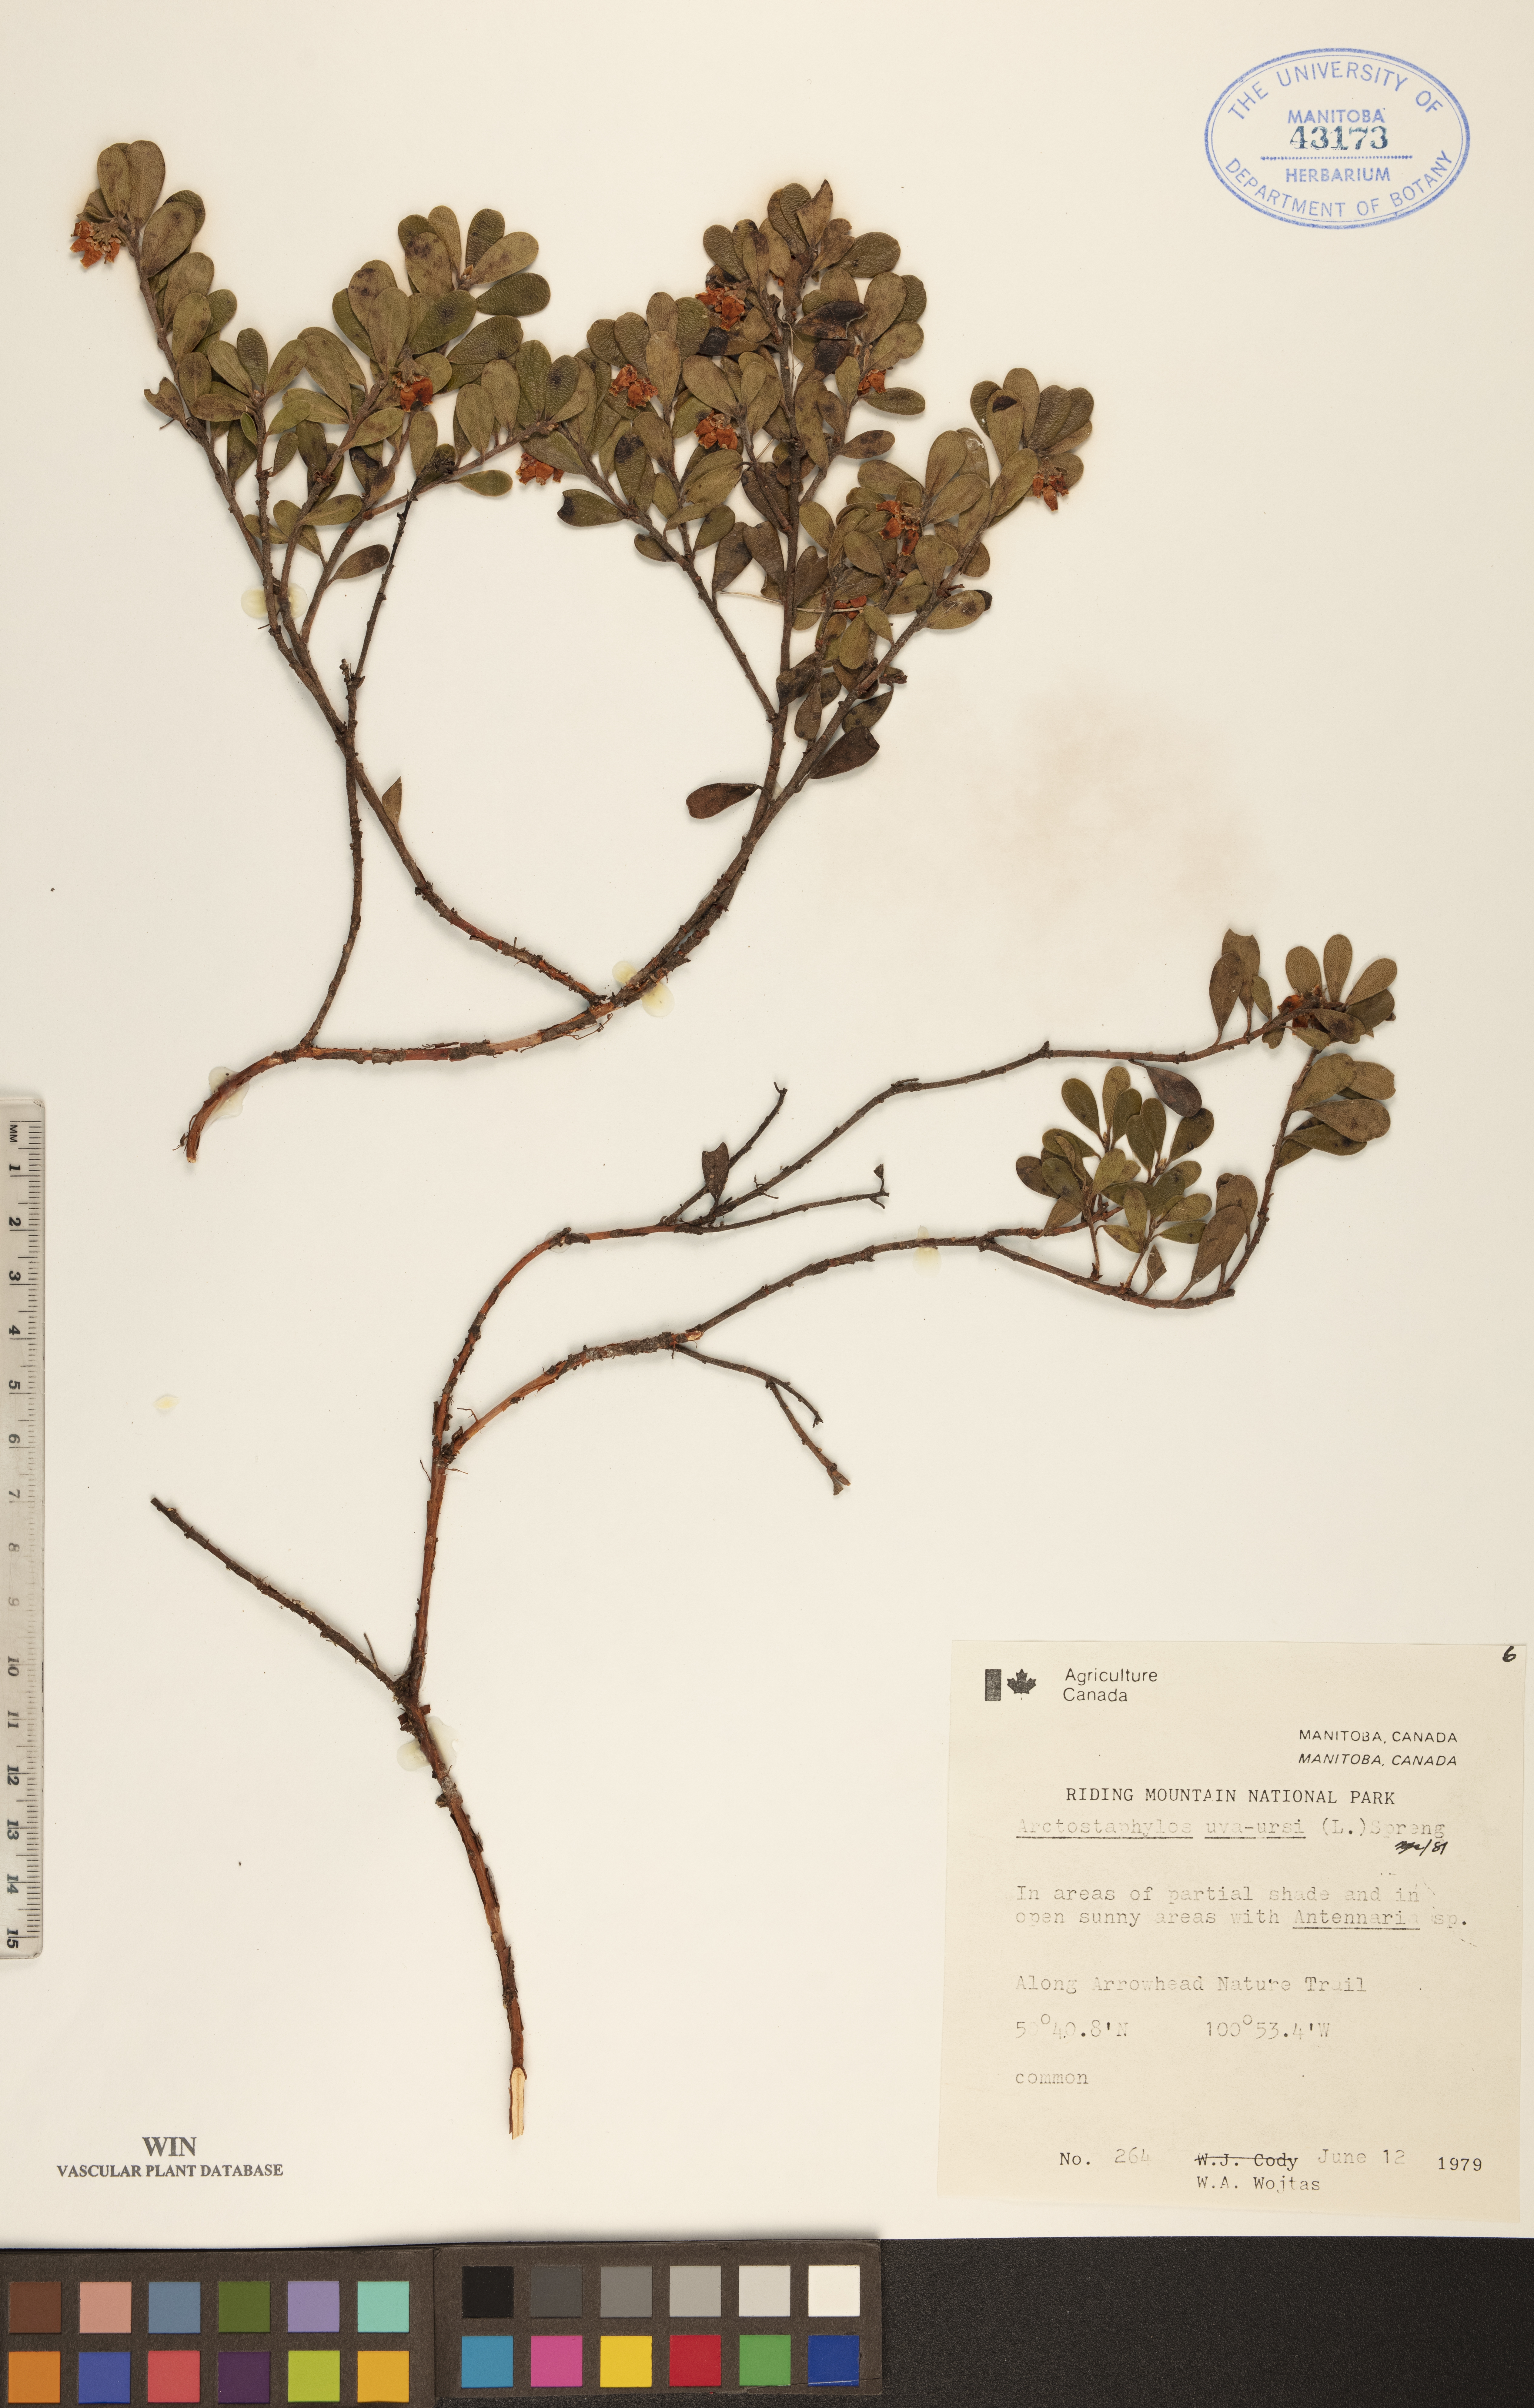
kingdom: Plantae
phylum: Tracheophyta
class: Magnoliopsida
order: Ericales
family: Ericaceae
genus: Arctostaphylos
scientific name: Arctostaphylos uva-ursi
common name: Bearberry
